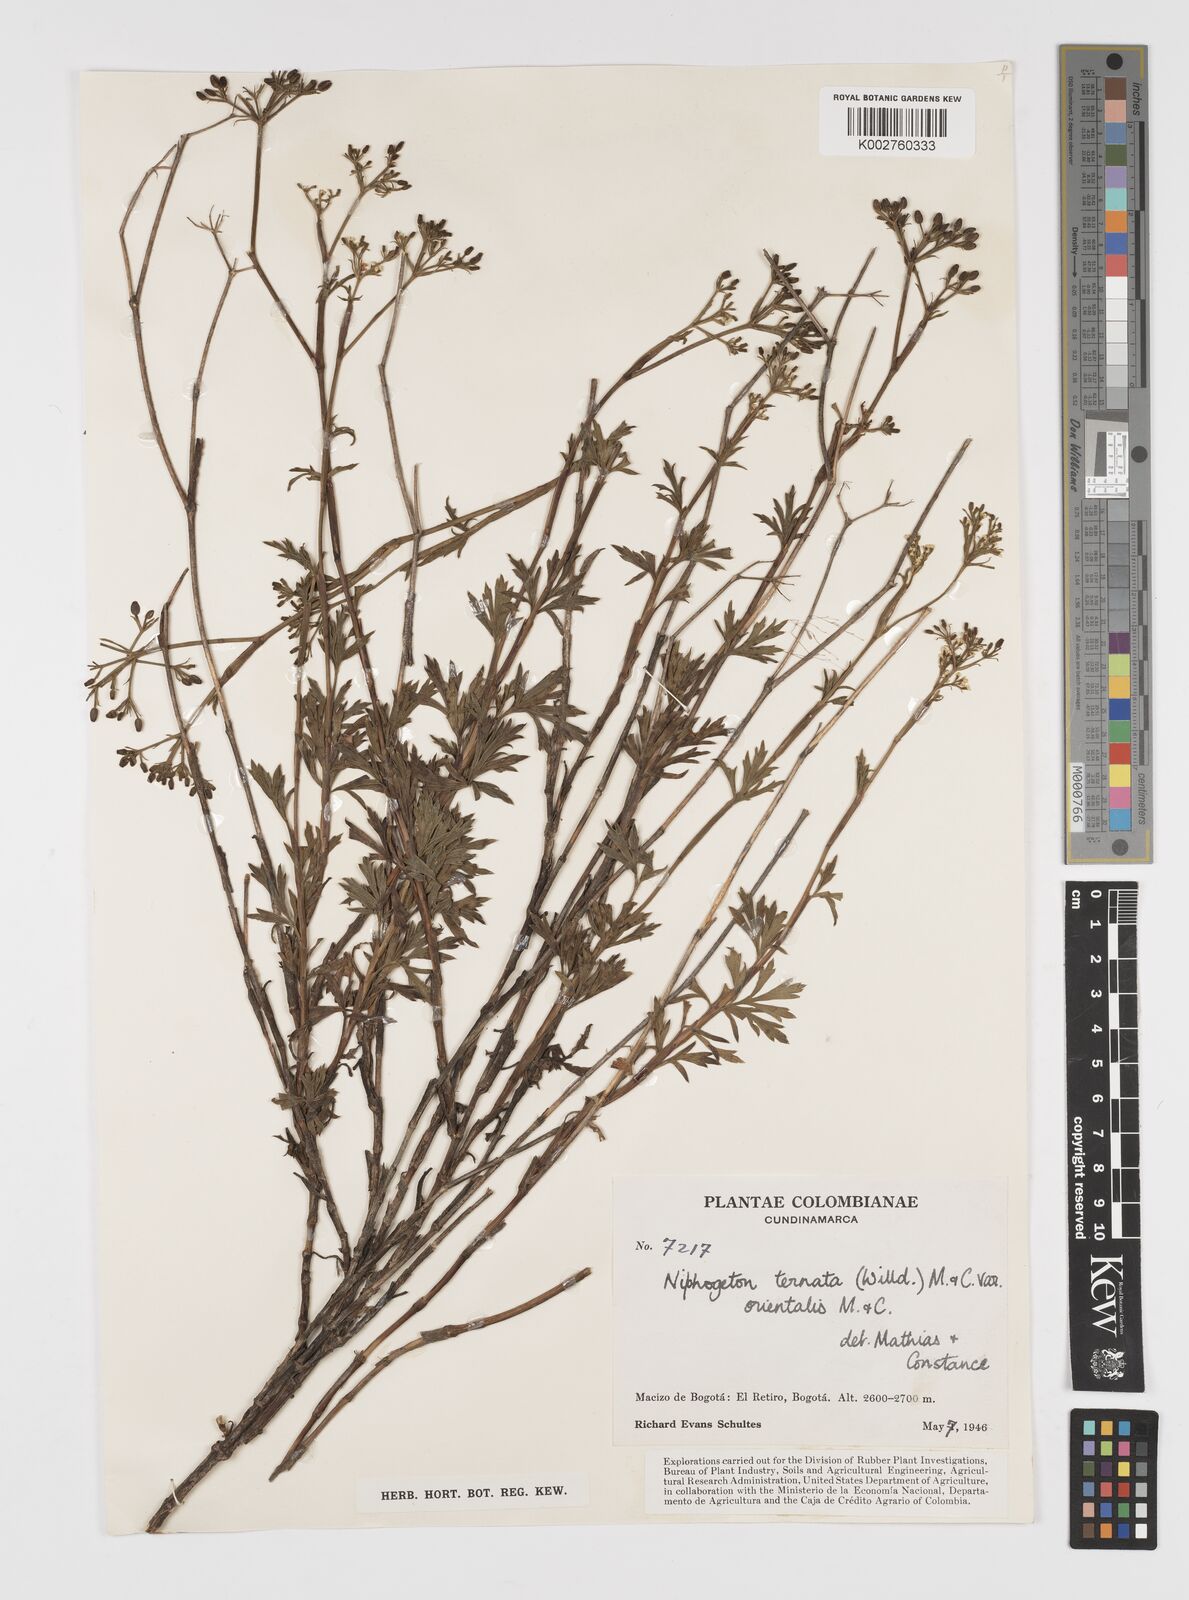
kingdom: Plantae
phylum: Tracheophyta
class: Magnoliopsida
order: Apiales
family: Apiaceae
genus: Niphogeton
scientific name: Niphogeton ternata
